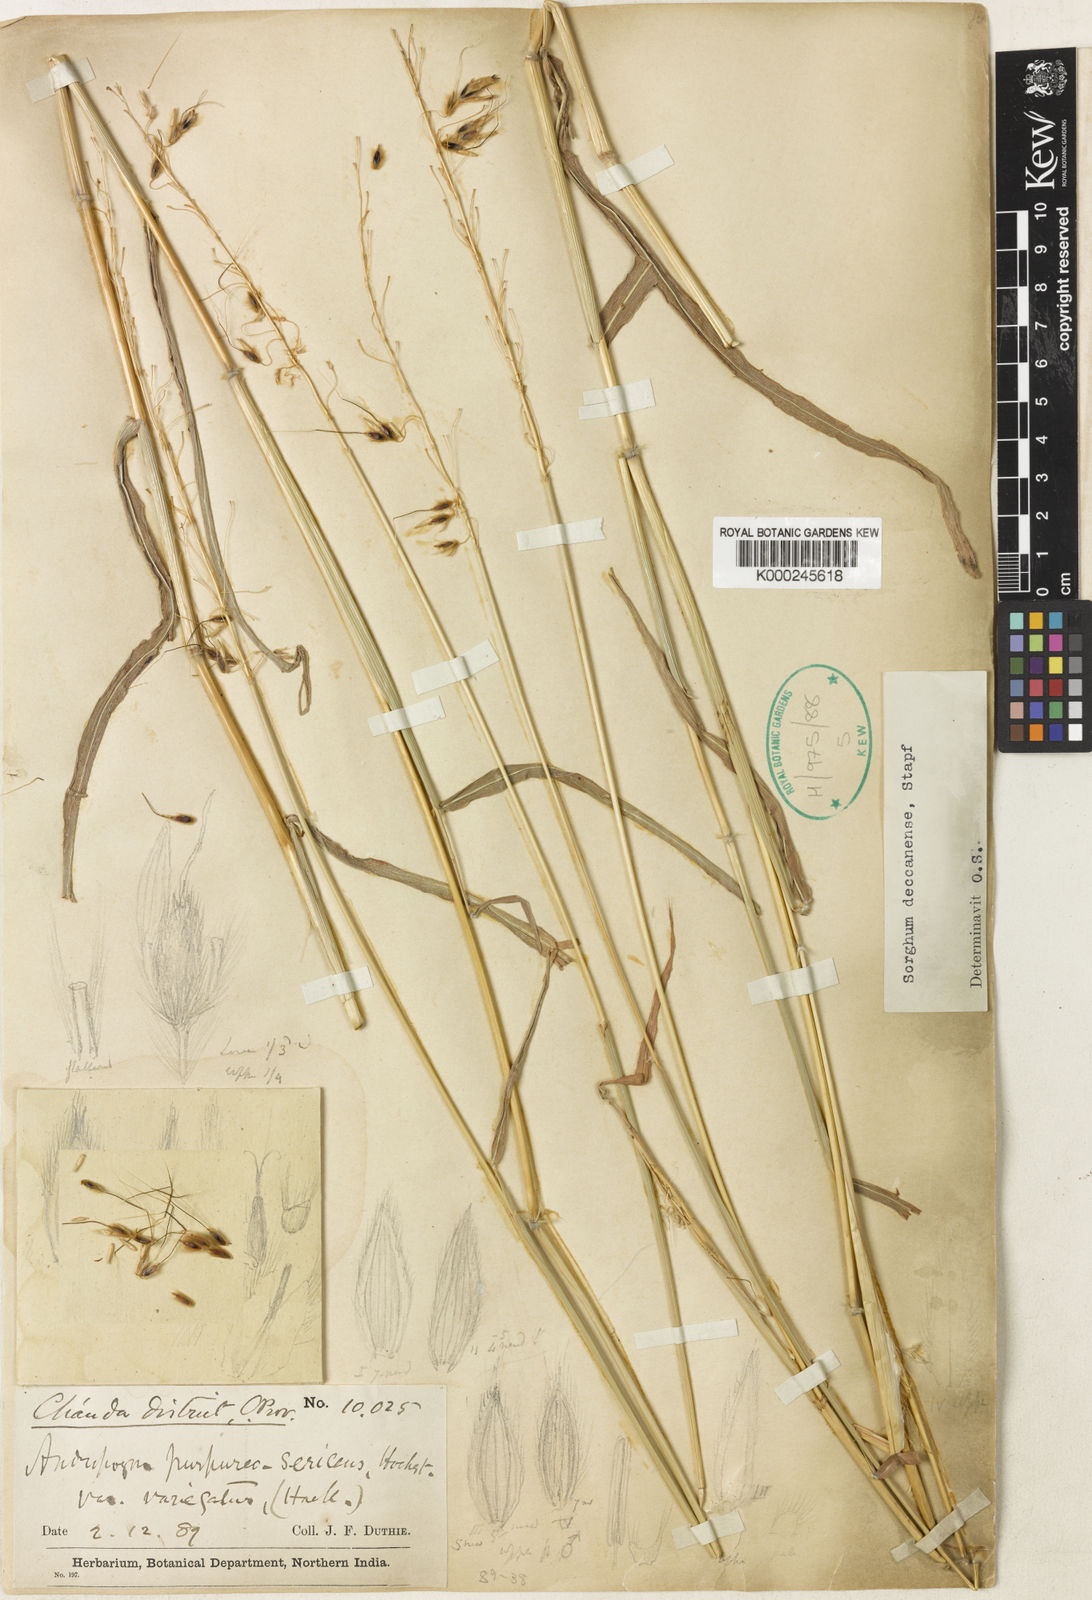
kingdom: Plantae
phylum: Tracheophyta
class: Liliopsida
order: Poales
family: Poaceae
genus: Sarga
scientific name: Sarga purpureosericea
